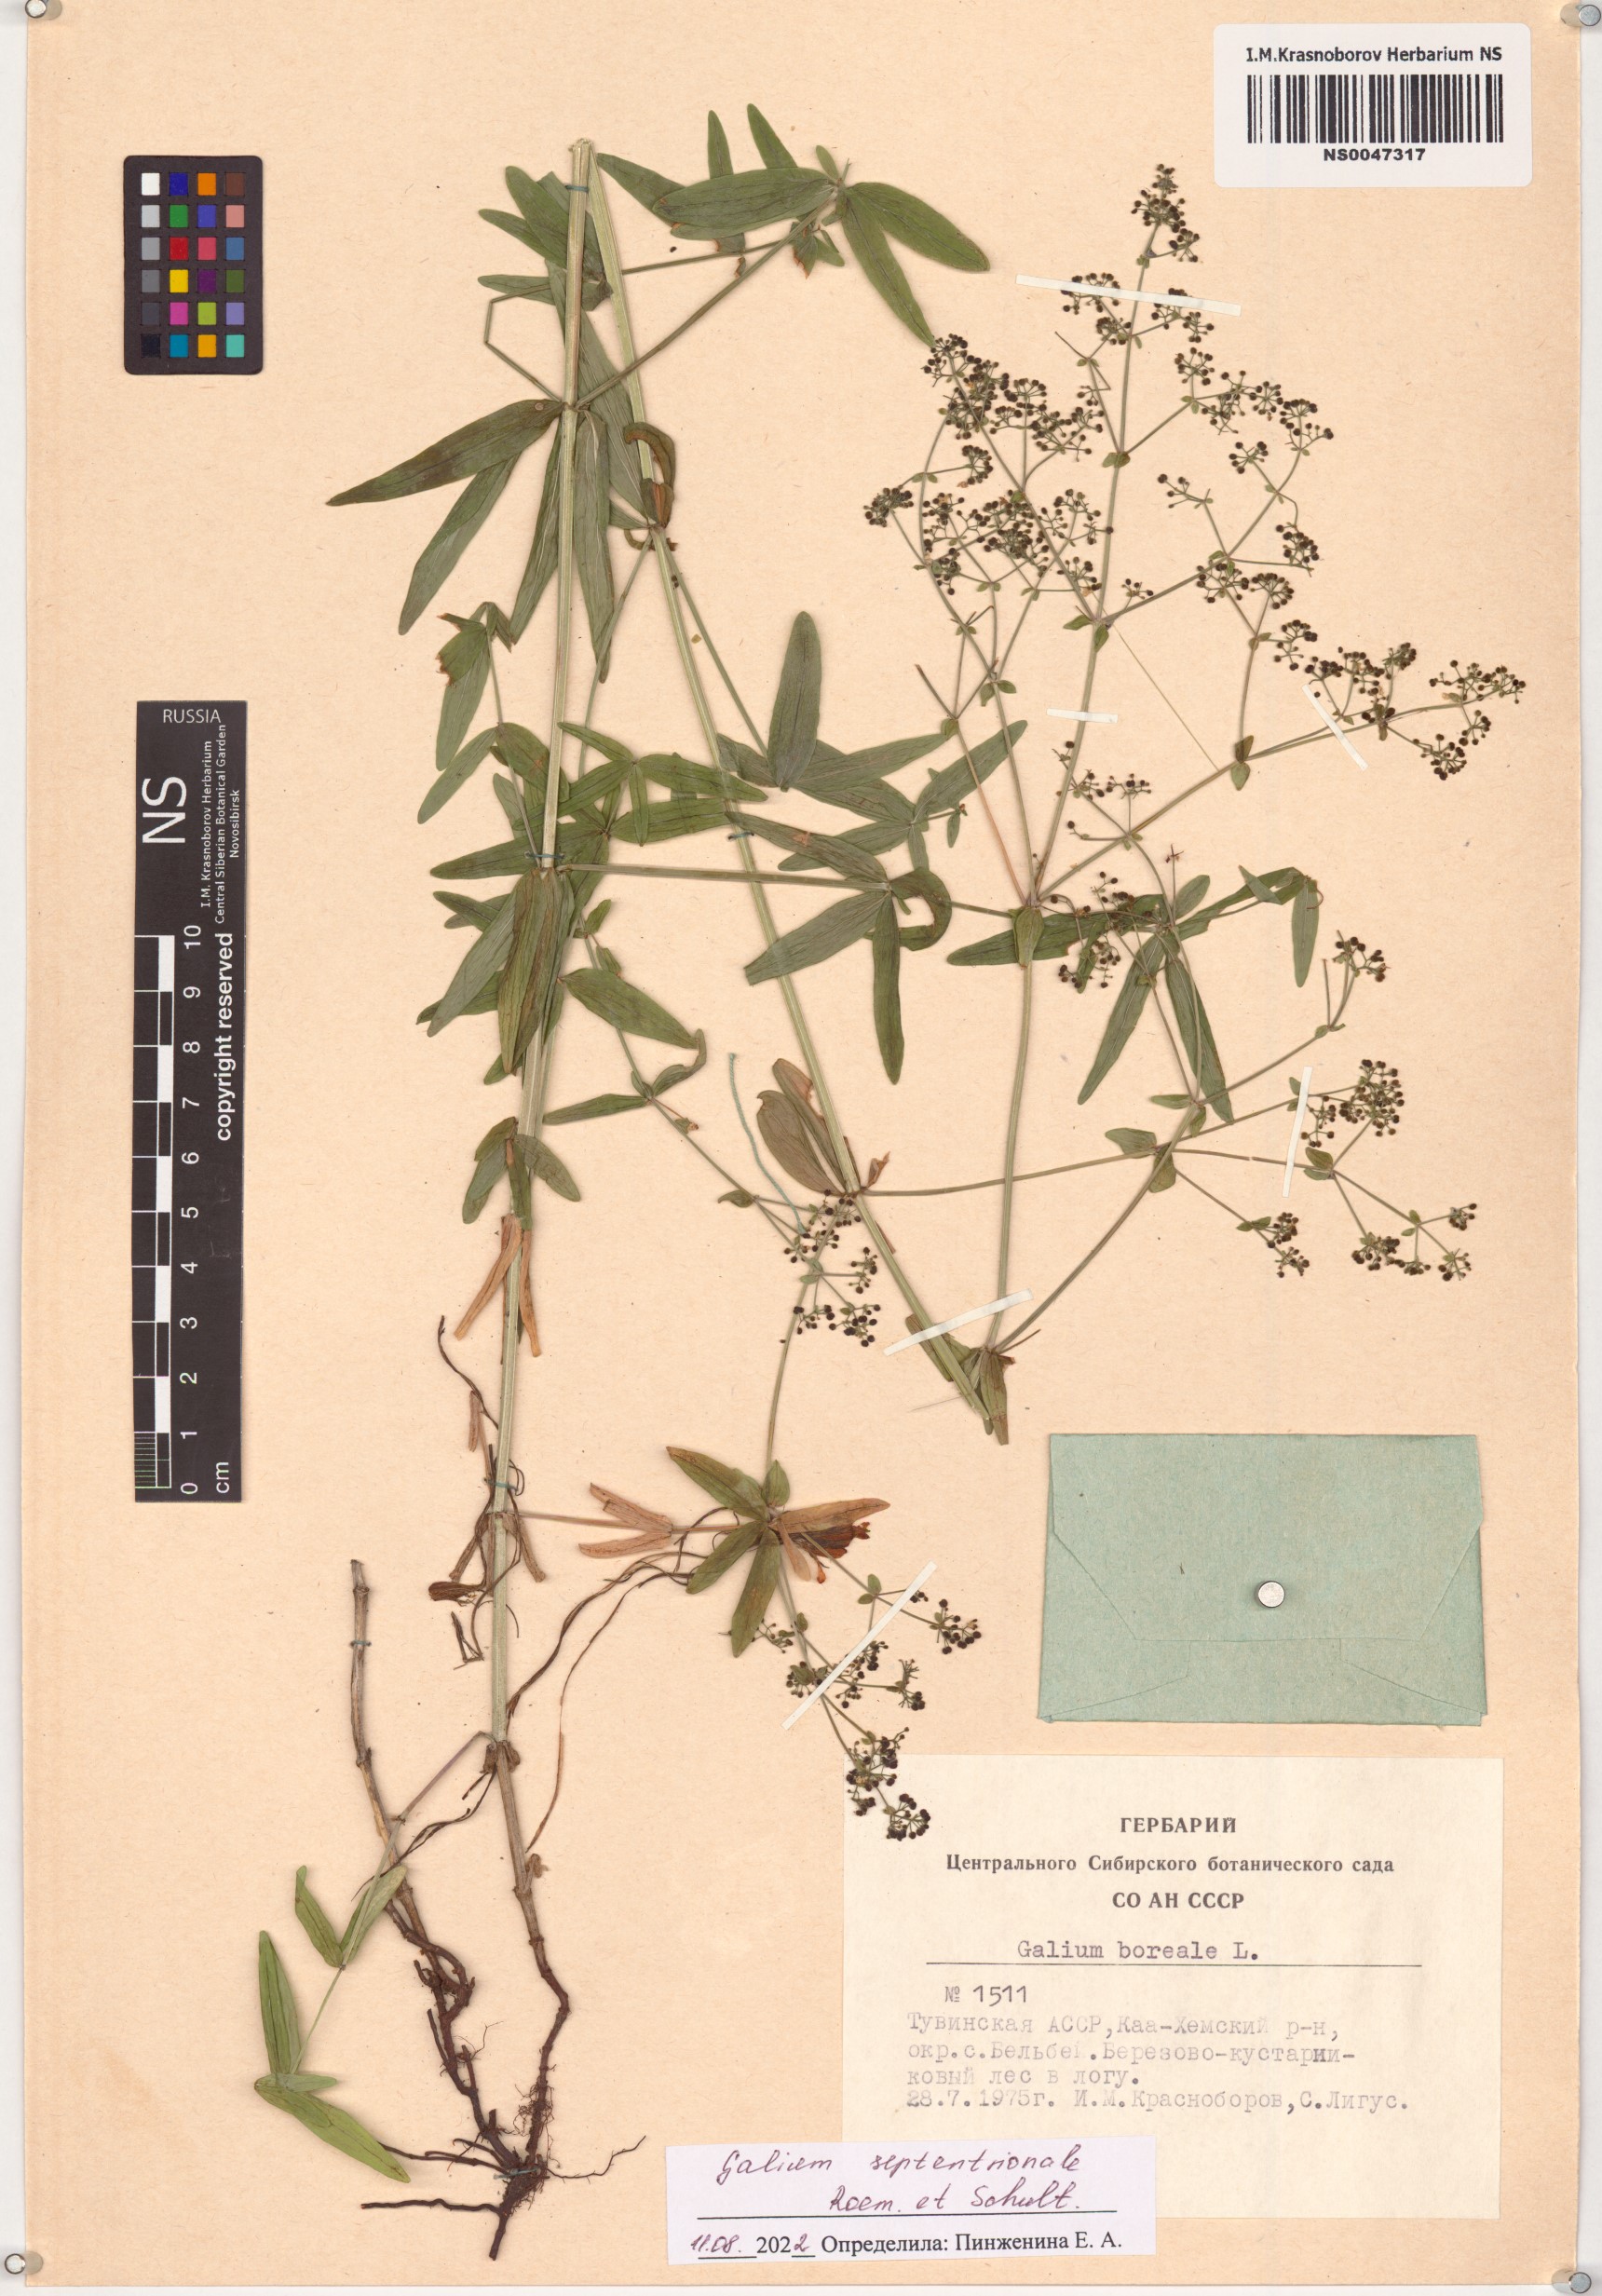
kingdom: Plantae
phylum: Tracheophyta
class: Magnoliopsida
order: Gentianales
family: Rubiaceae
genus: Galium
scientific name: Galium boreale
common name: Northern bedstraw
